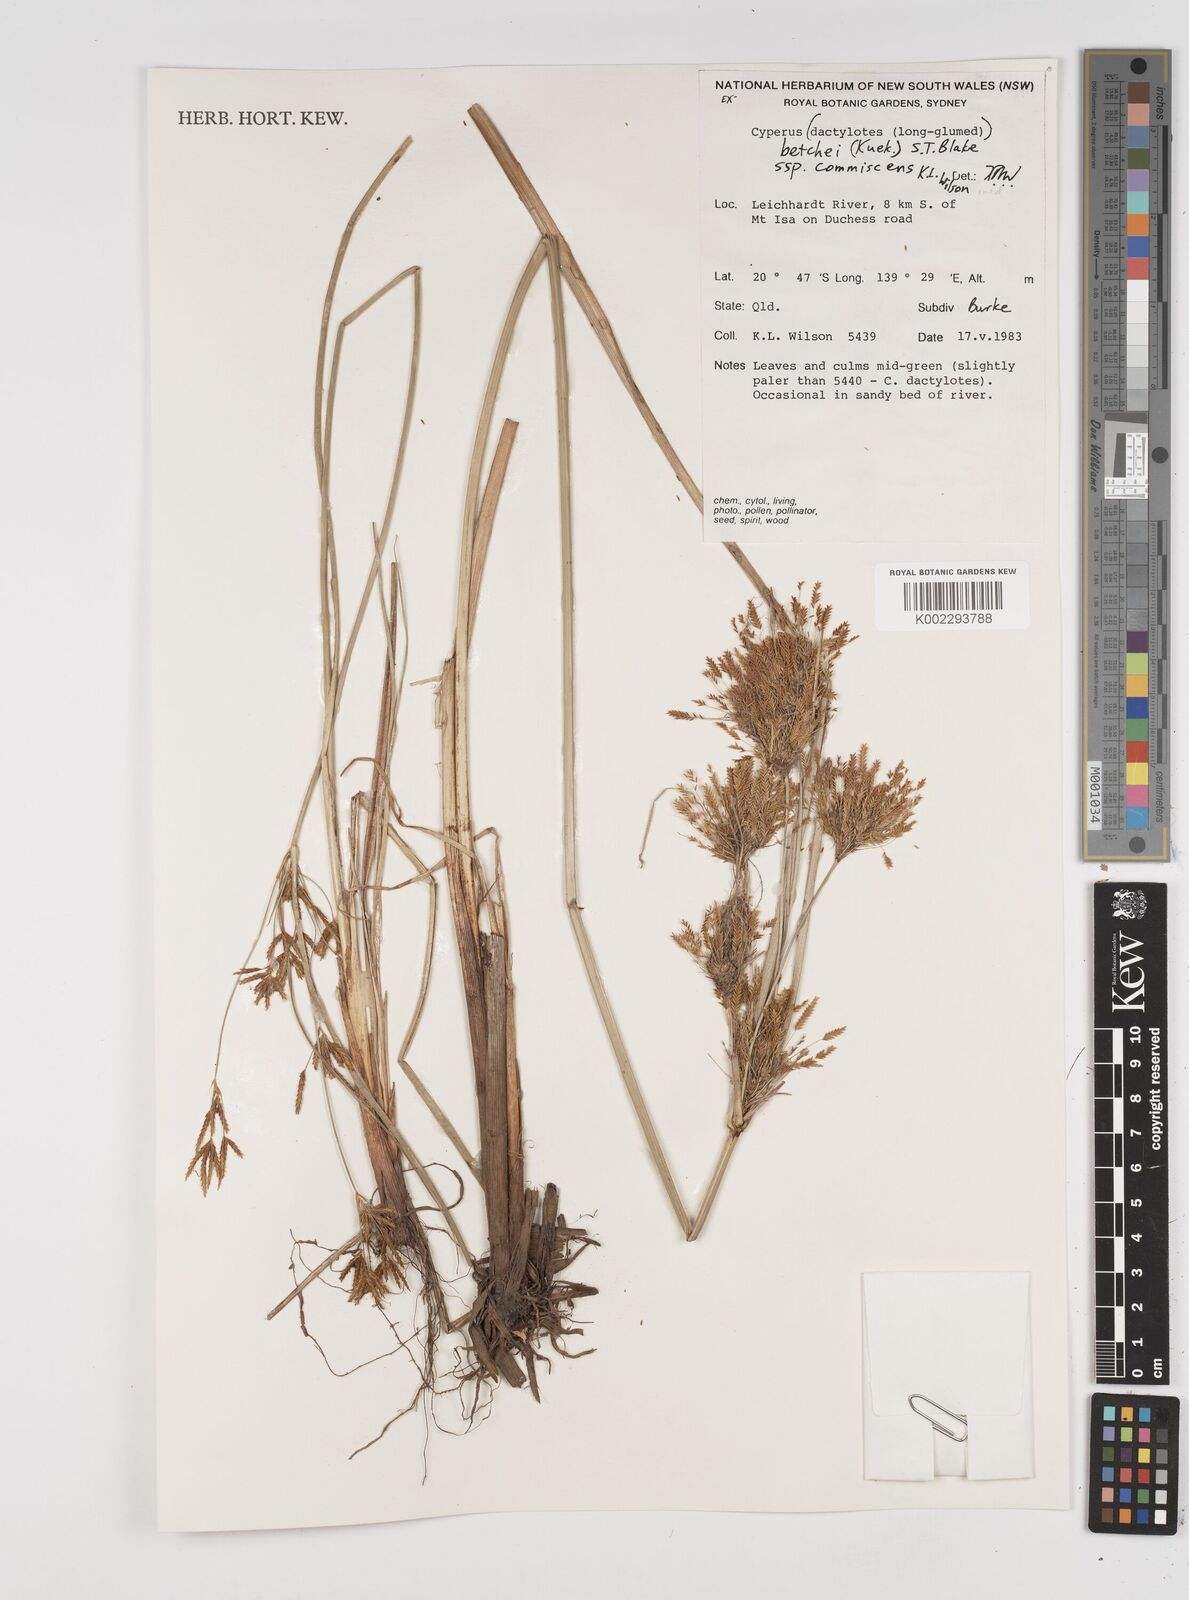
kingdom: Plantae
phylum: Tracheophyta
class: Liliopsida
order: Poales
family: Cyperaceae
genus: Cyperus
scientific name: Cyperus betchei
